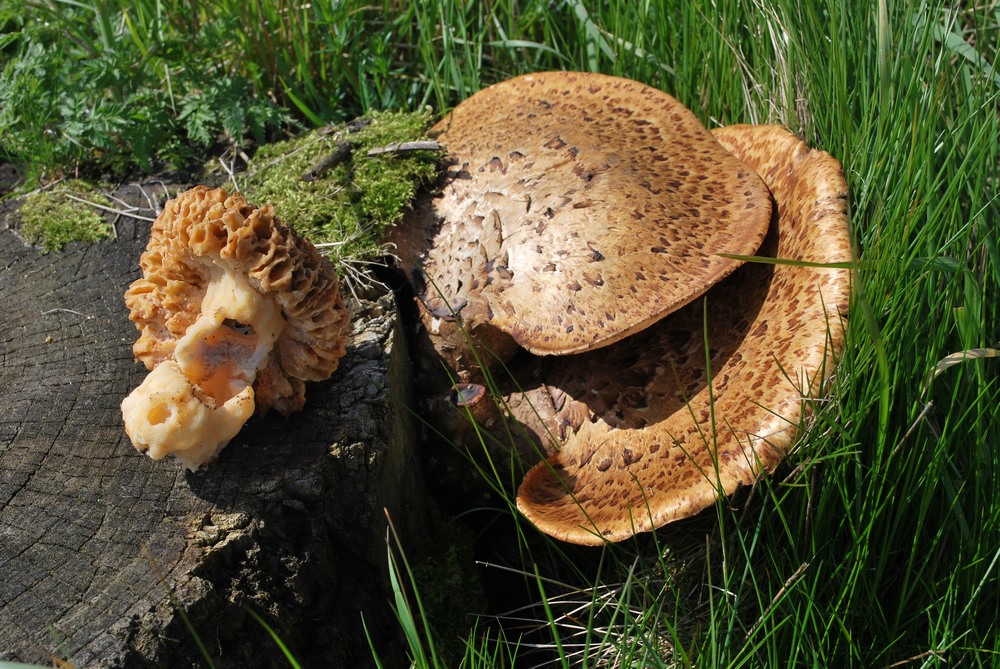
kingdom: Fungi
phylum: Ascomycota
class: Pezizomycetes
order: Pezizales
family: Morchellaceae
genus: Morchella
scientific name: Morchella esculenta
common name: spiselig morkel
